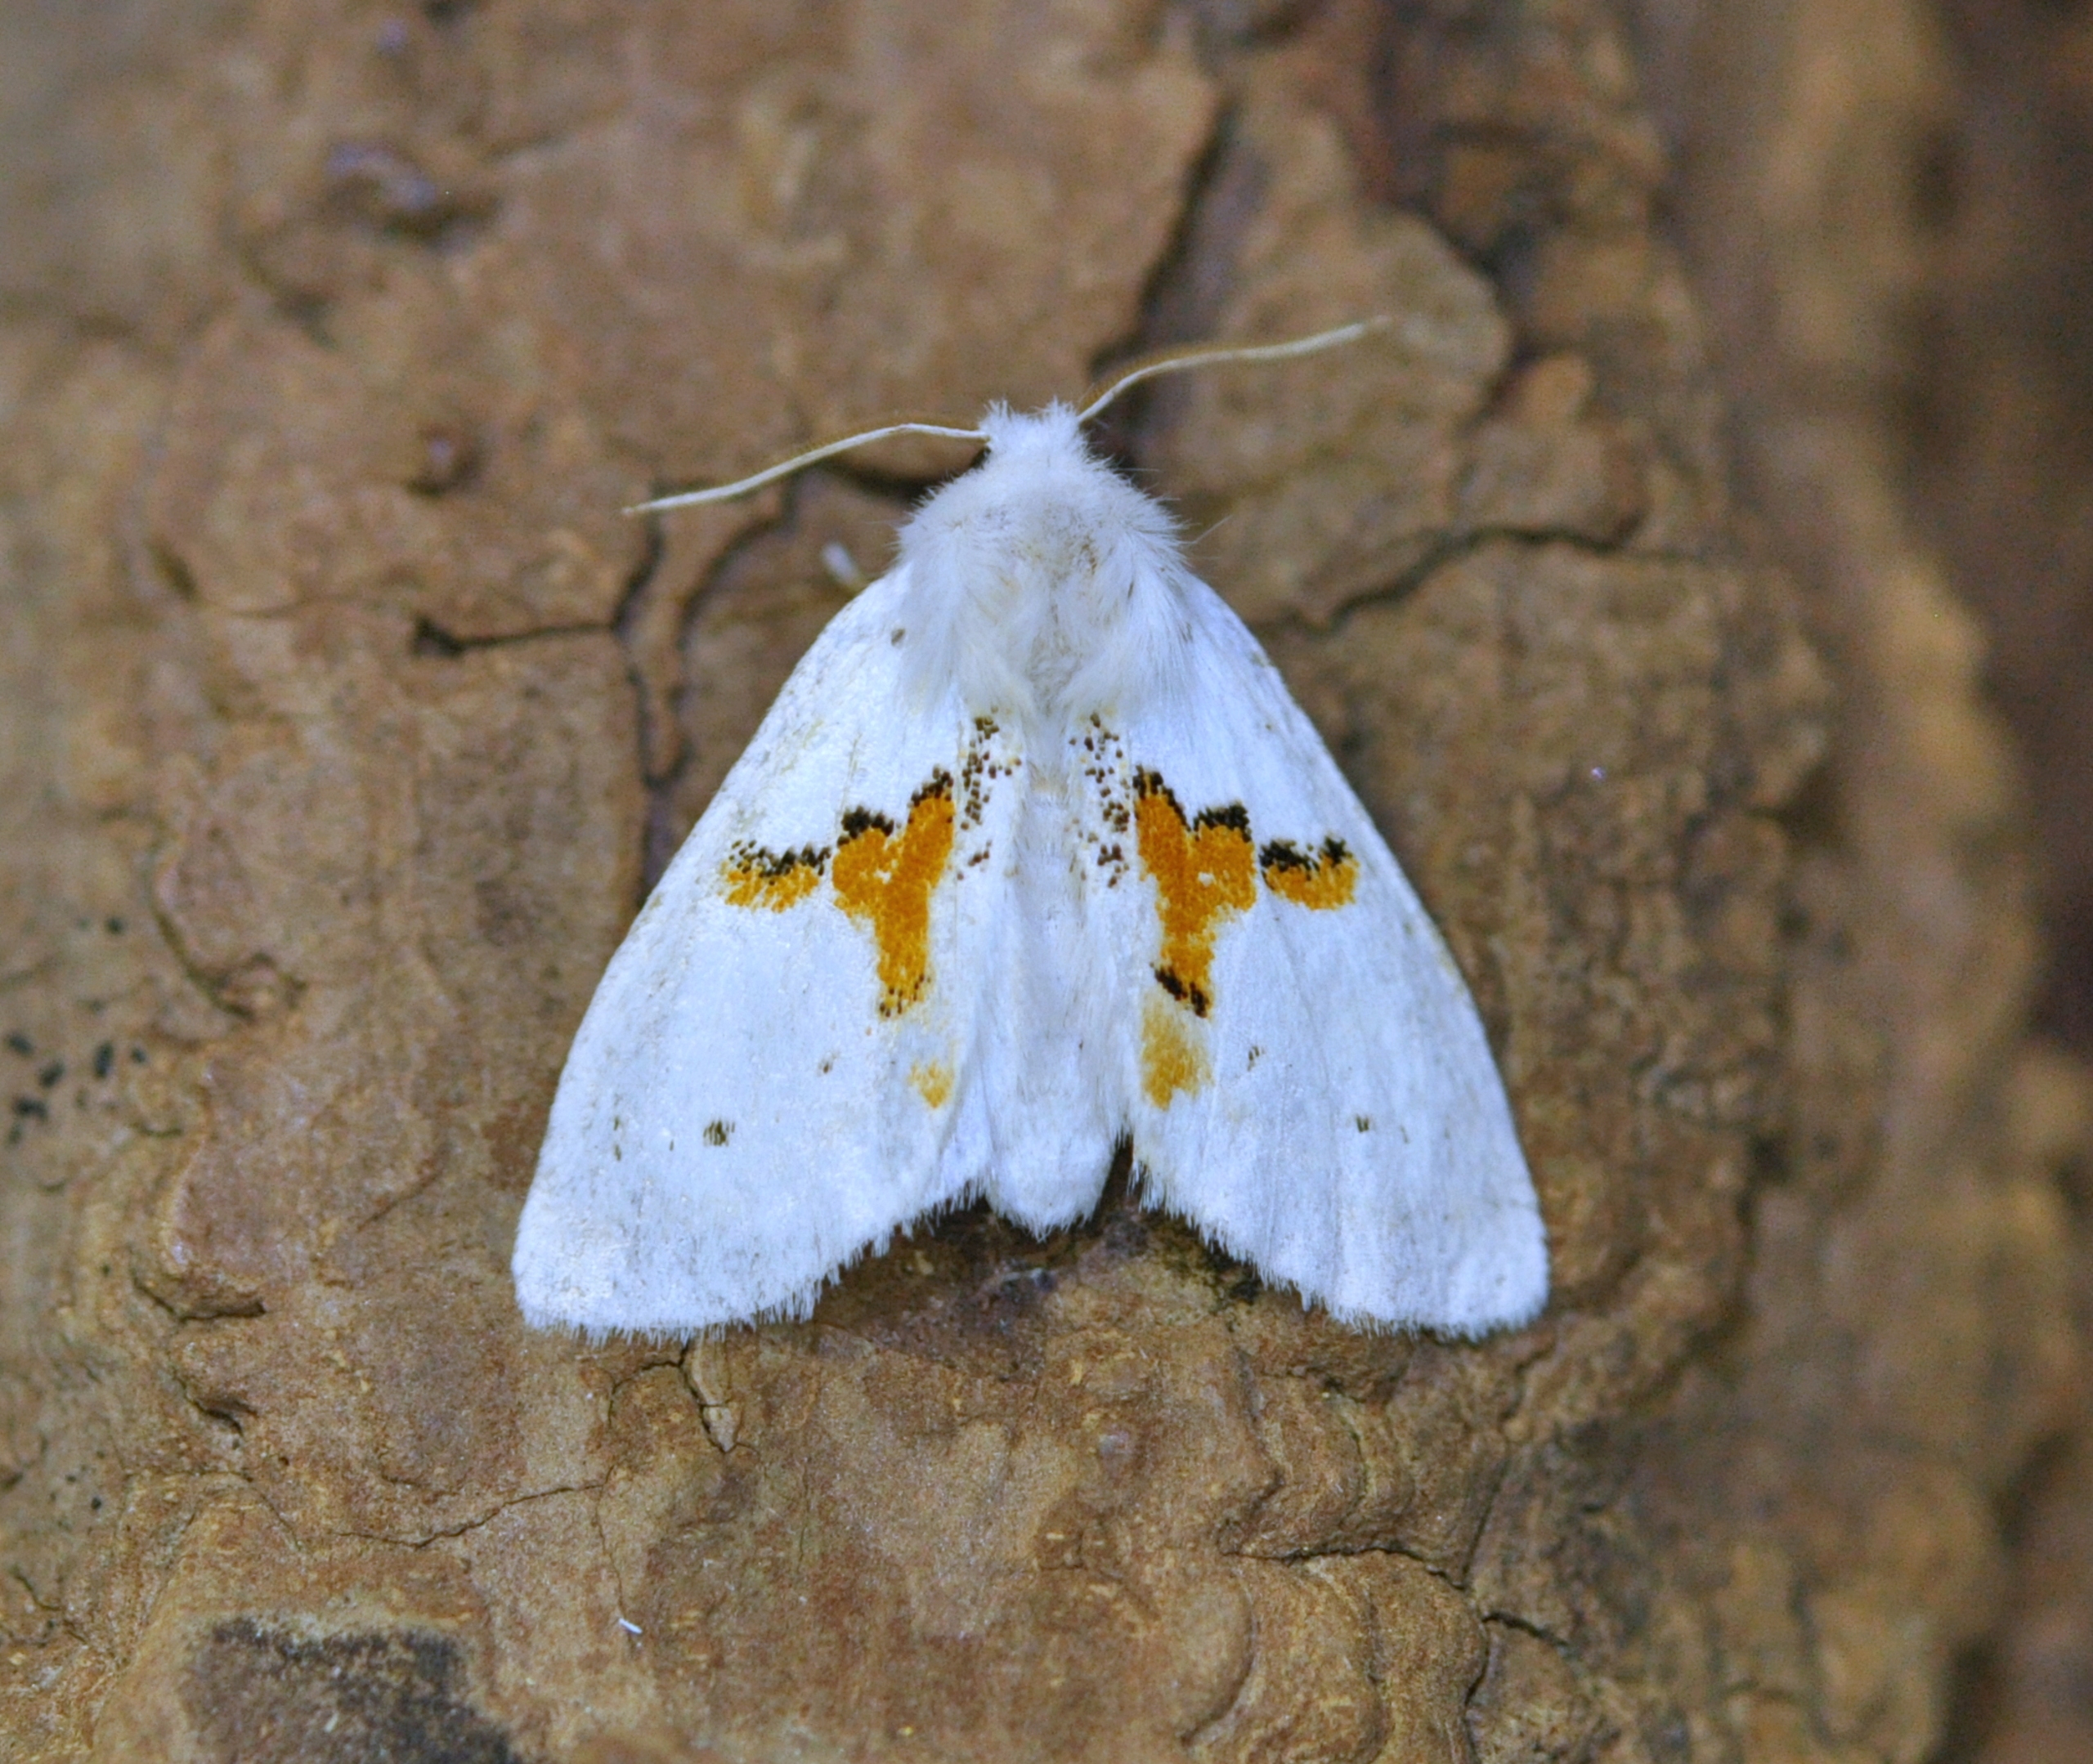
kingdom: Animalia
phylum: Arthropoda
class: Insecta
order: Lepidoptera
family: Notodontidae
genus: Leucodonta
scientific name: Leucodonta bicoloria
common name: Snehvid birkespinder
